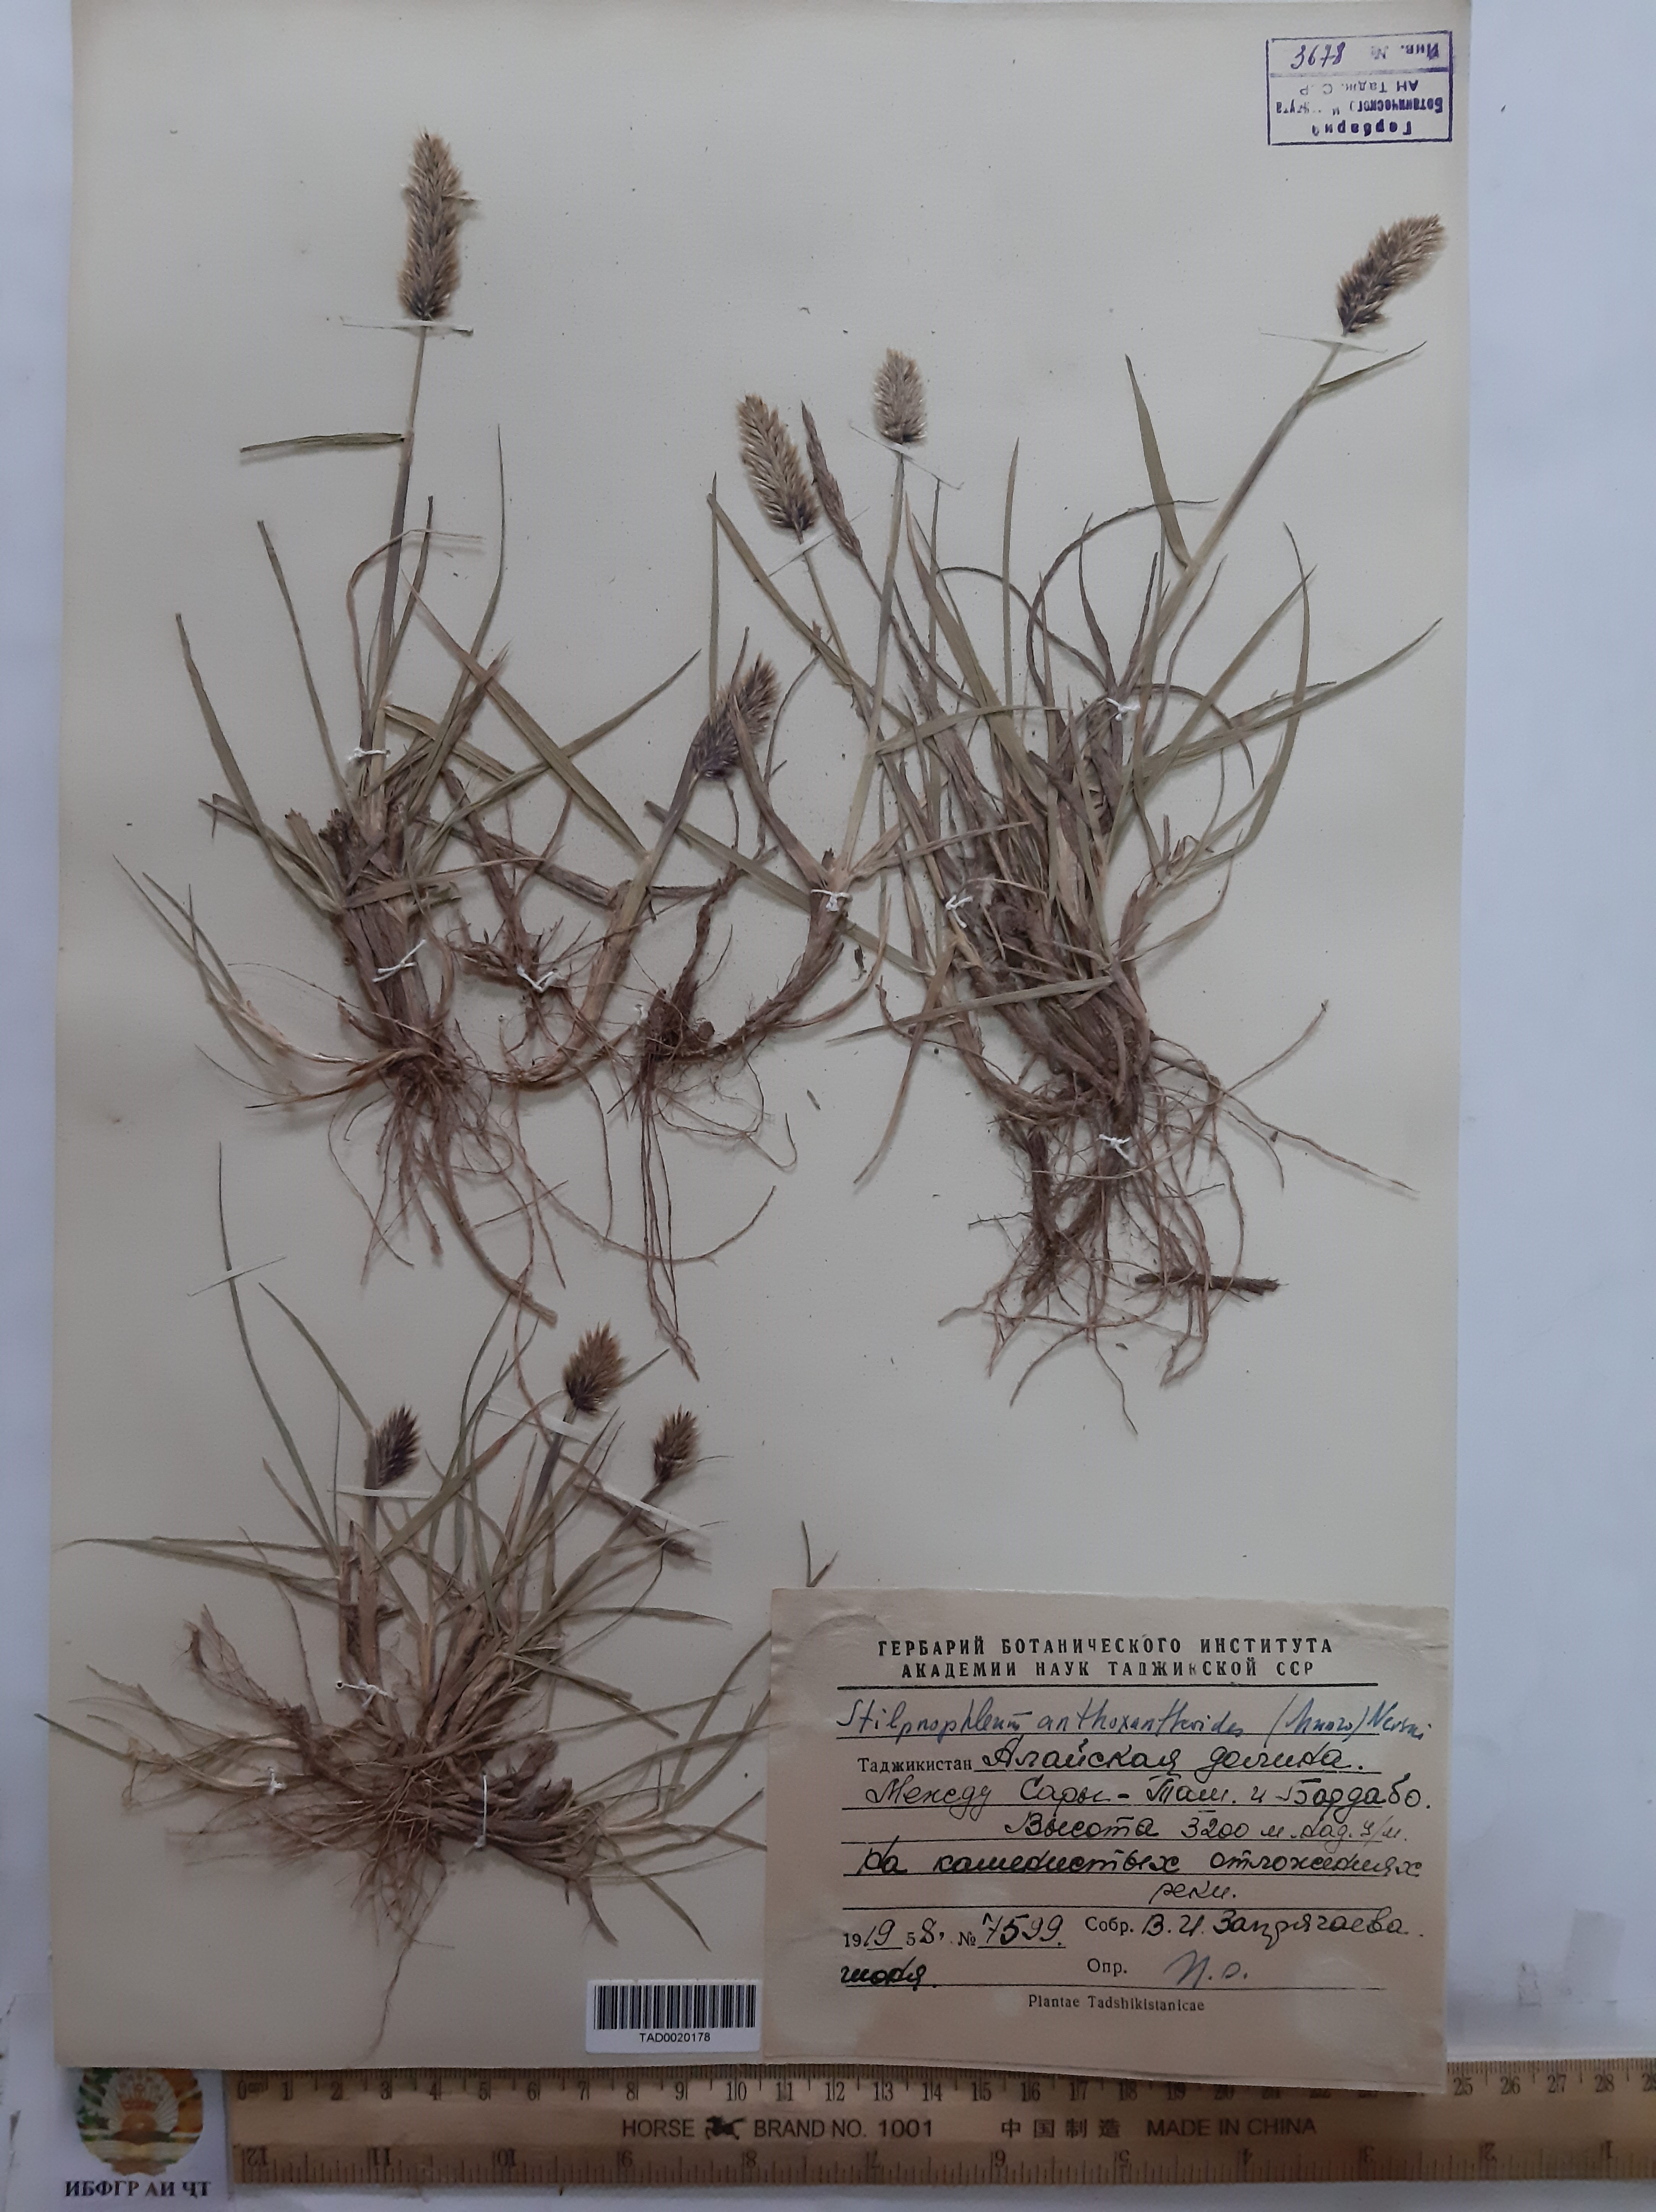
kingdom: Plantae
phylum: Tracheophyta
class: Liliopsida
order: Poales
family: Poaceae
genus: Calamagrostis
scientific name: Calamagrostis anthoxanthoides
